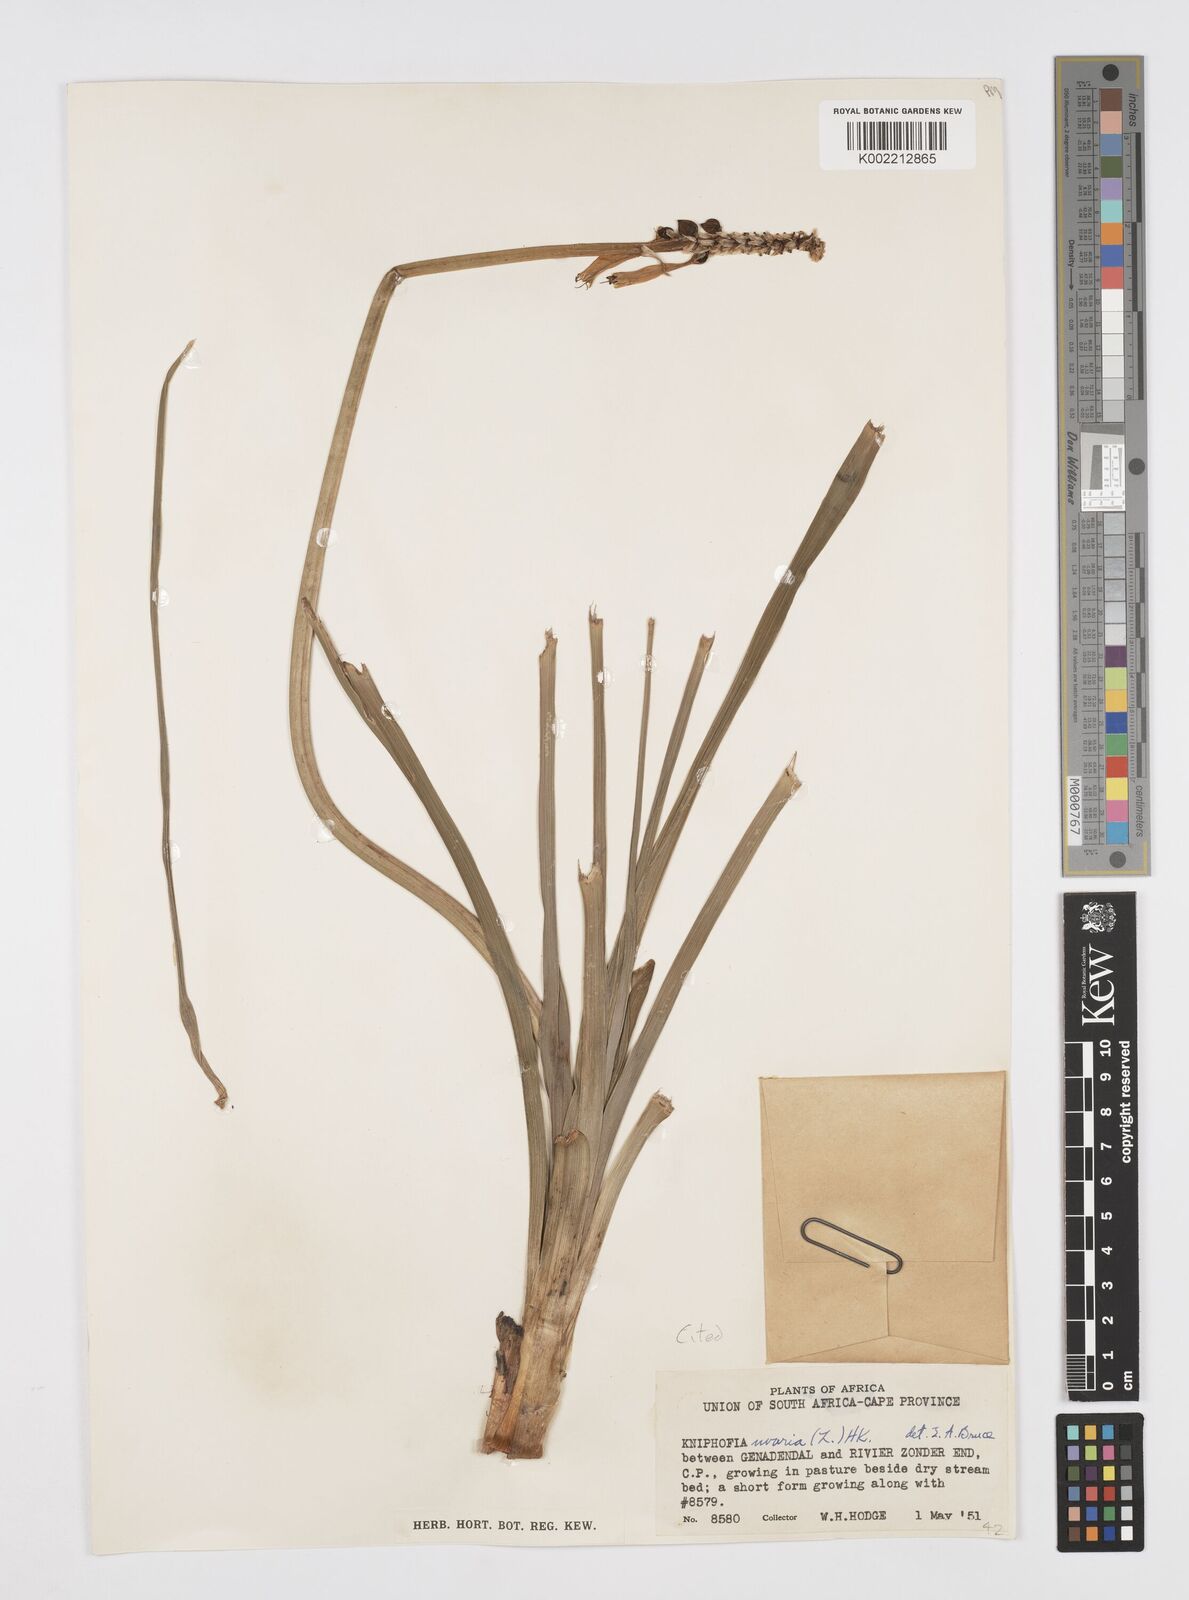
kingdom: Plantae
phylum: Tracheophyta
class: Liliopsida
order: Asparagales
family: Asphodelaceae
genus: Kniphofia
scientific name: Kniphofia uvaria
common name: Red-hot-poker
